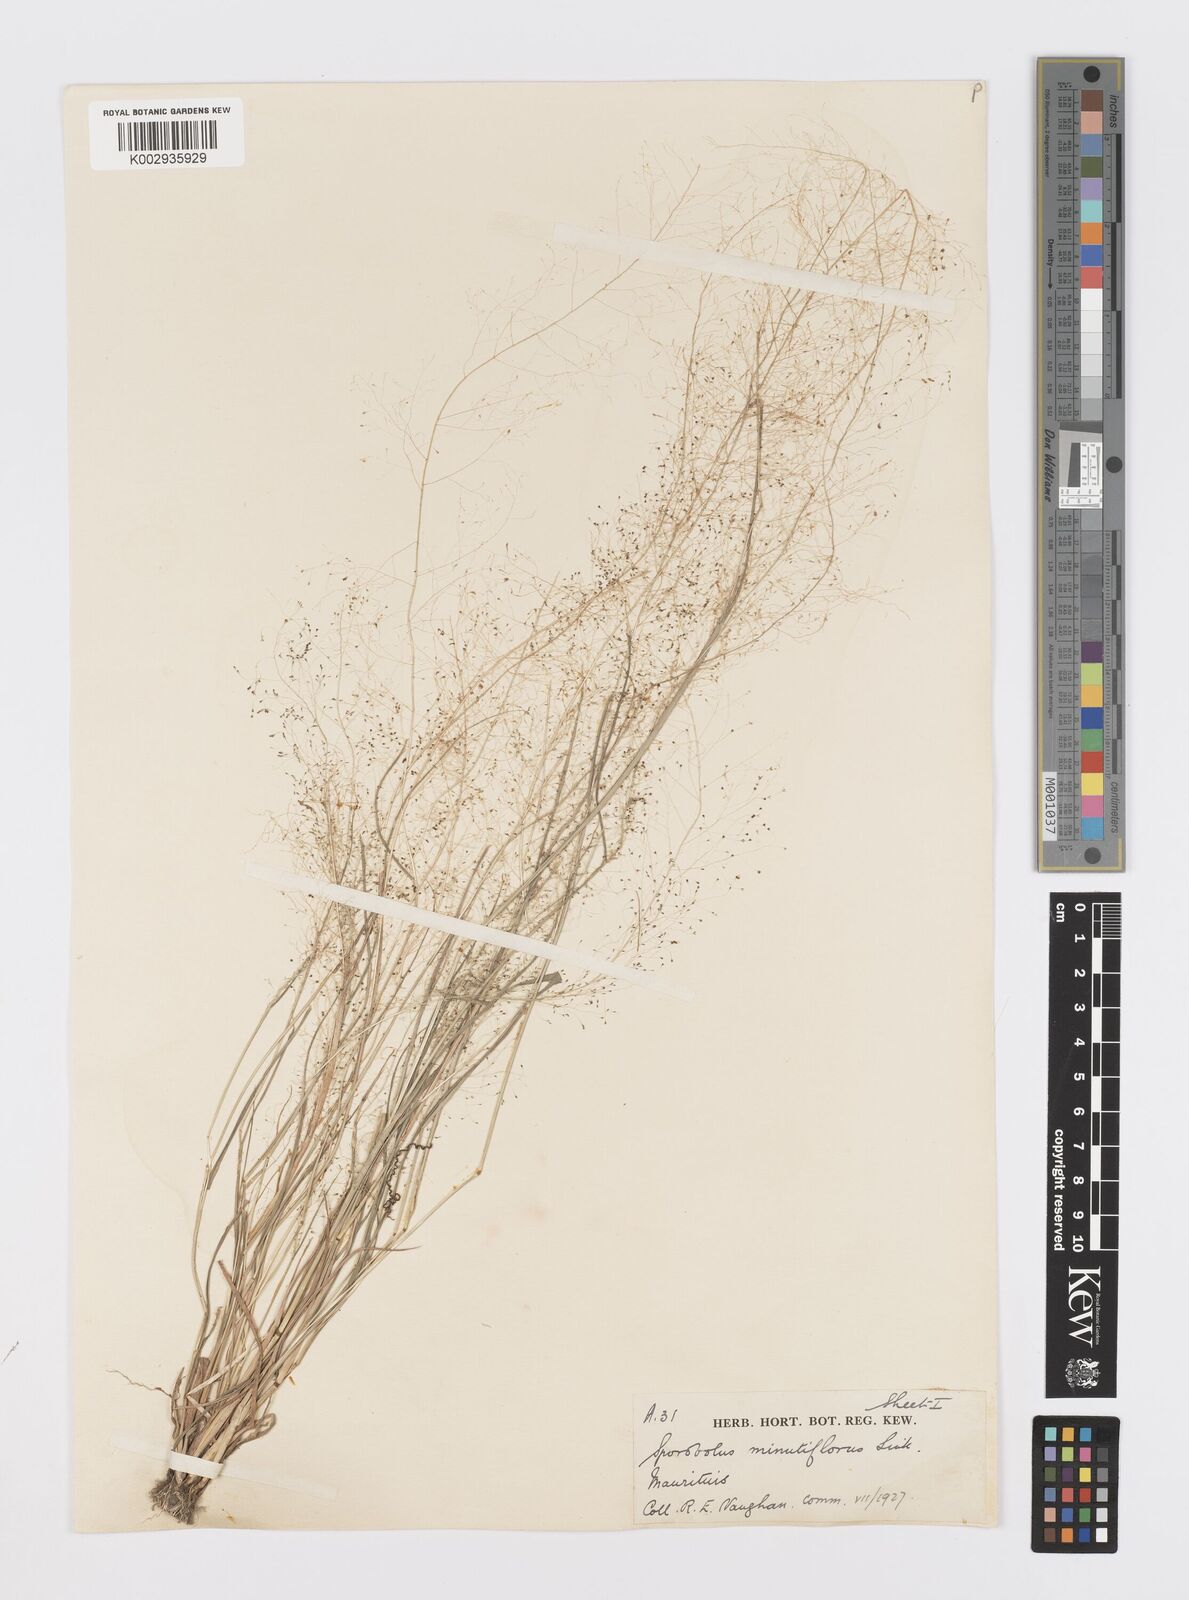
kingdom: Plantae
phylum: Tracheophyta
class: Liliopsida
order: Poales
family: Poaceae
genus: Sporobolus
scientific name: Sporobolus tenuissimus
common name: Tropical dropseed
